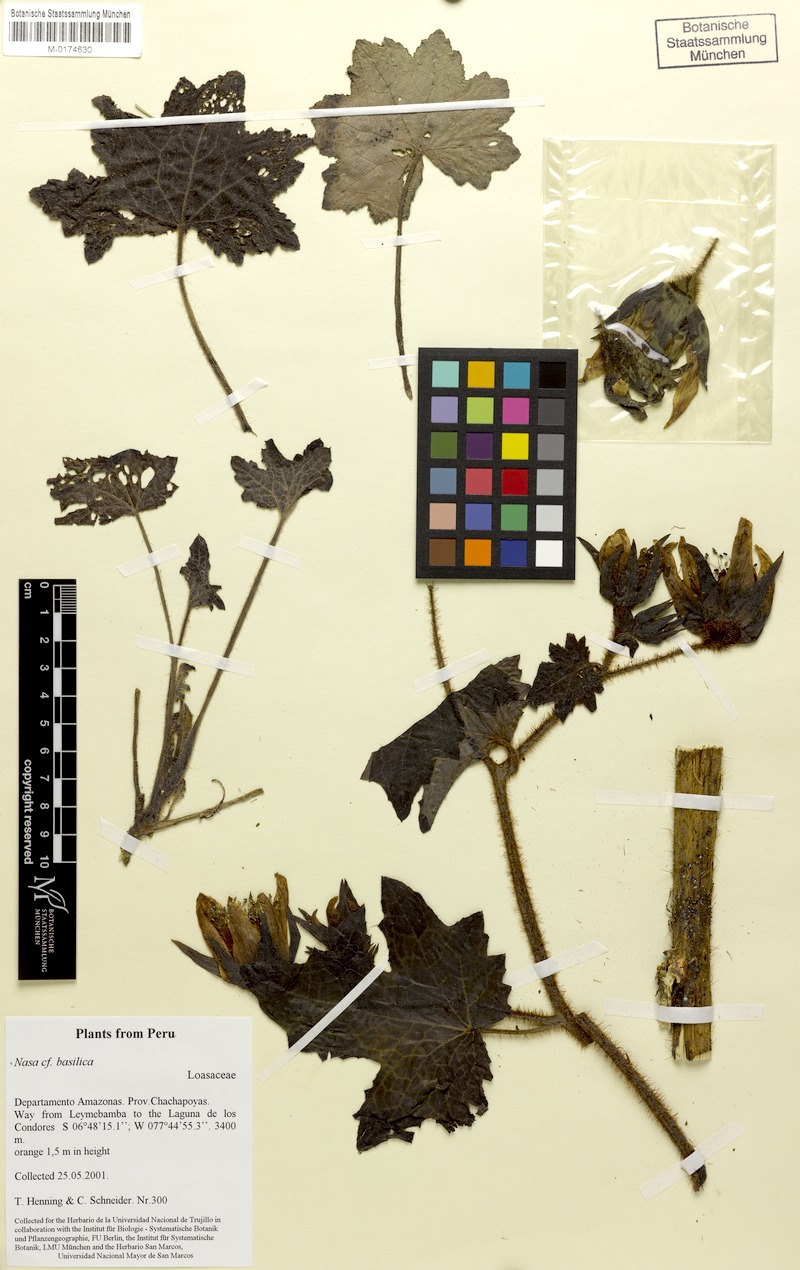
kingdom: Plantae
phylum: Tracheophyta
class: Magnoliopsida
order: Cornales
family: Loasaceae
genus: Nasa
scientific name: Nasa basilica
